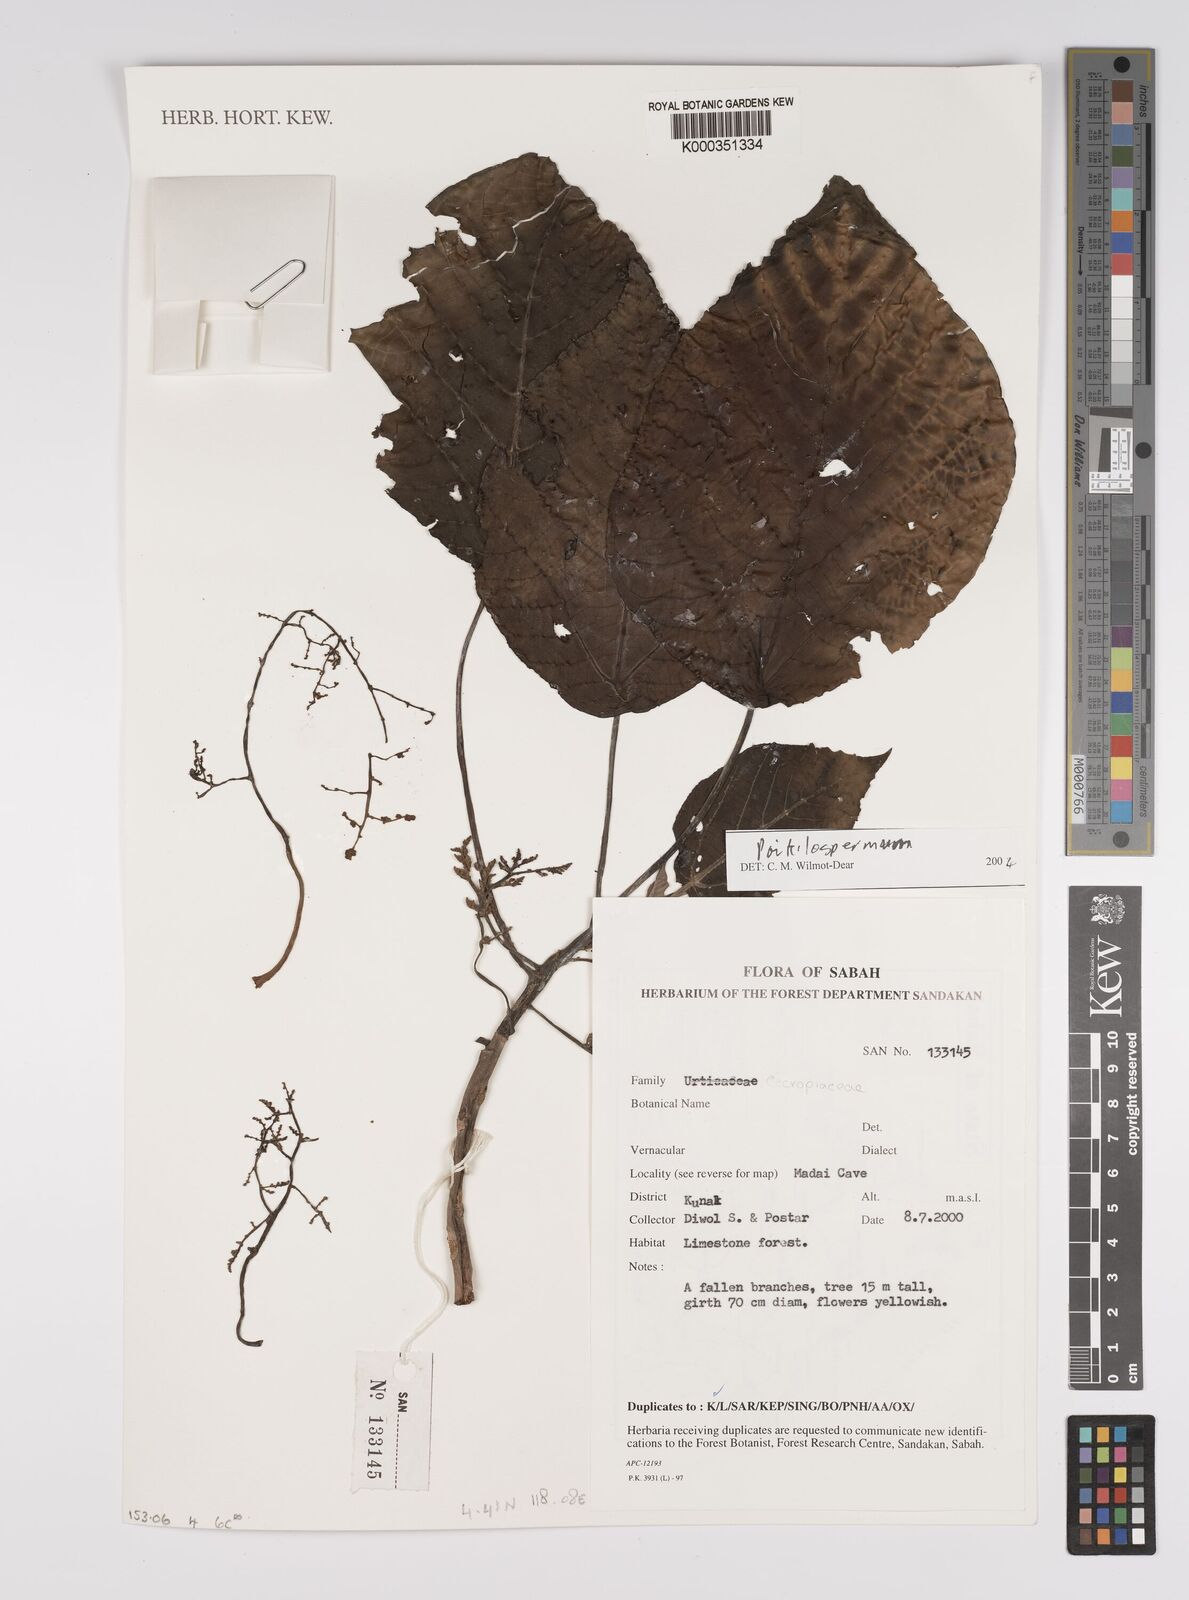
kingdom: Plantae
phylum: Tracheophyta
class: Magnoliopsida
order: Rosales
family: Urticaceae
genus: Poikilospermum
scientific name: Poikilospermum
